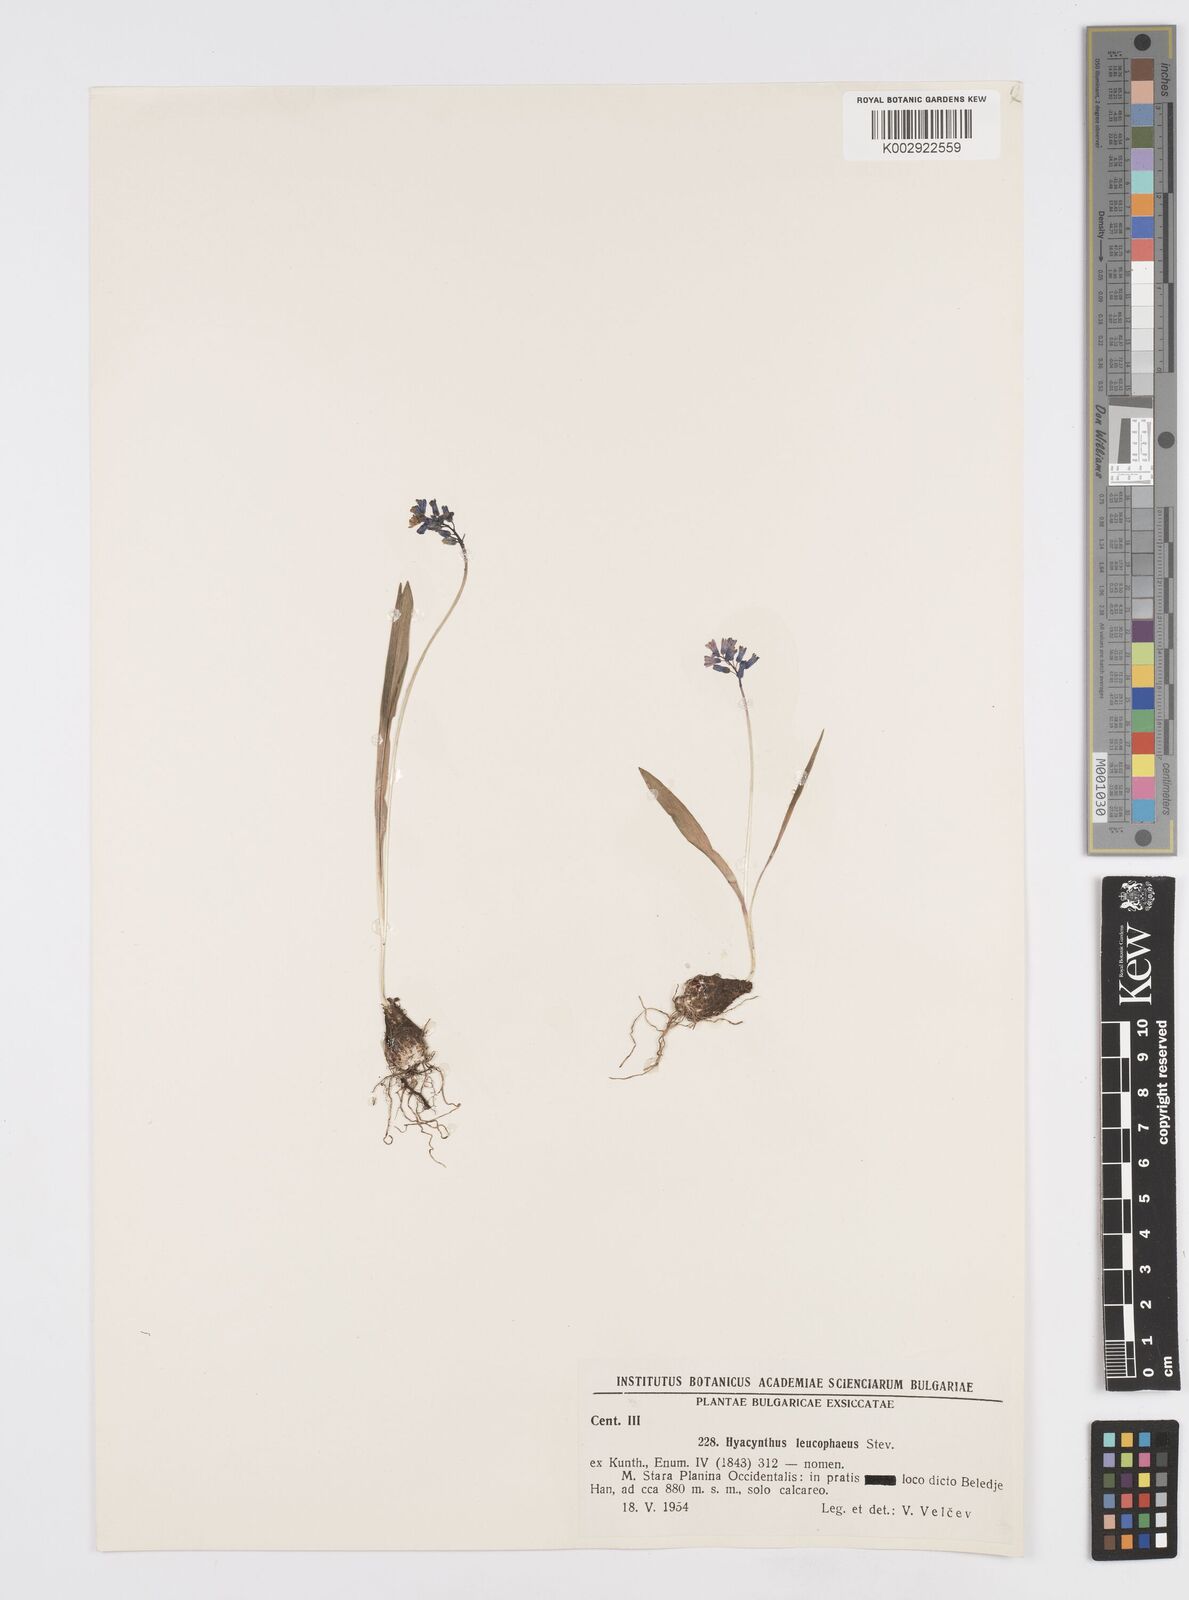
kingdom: Plantae
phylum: Tracheophyta
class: Liliopsida
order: Asparagales
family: Asparagaceae
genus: Hyacinthella
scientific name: Hyacinthella leucophaea
